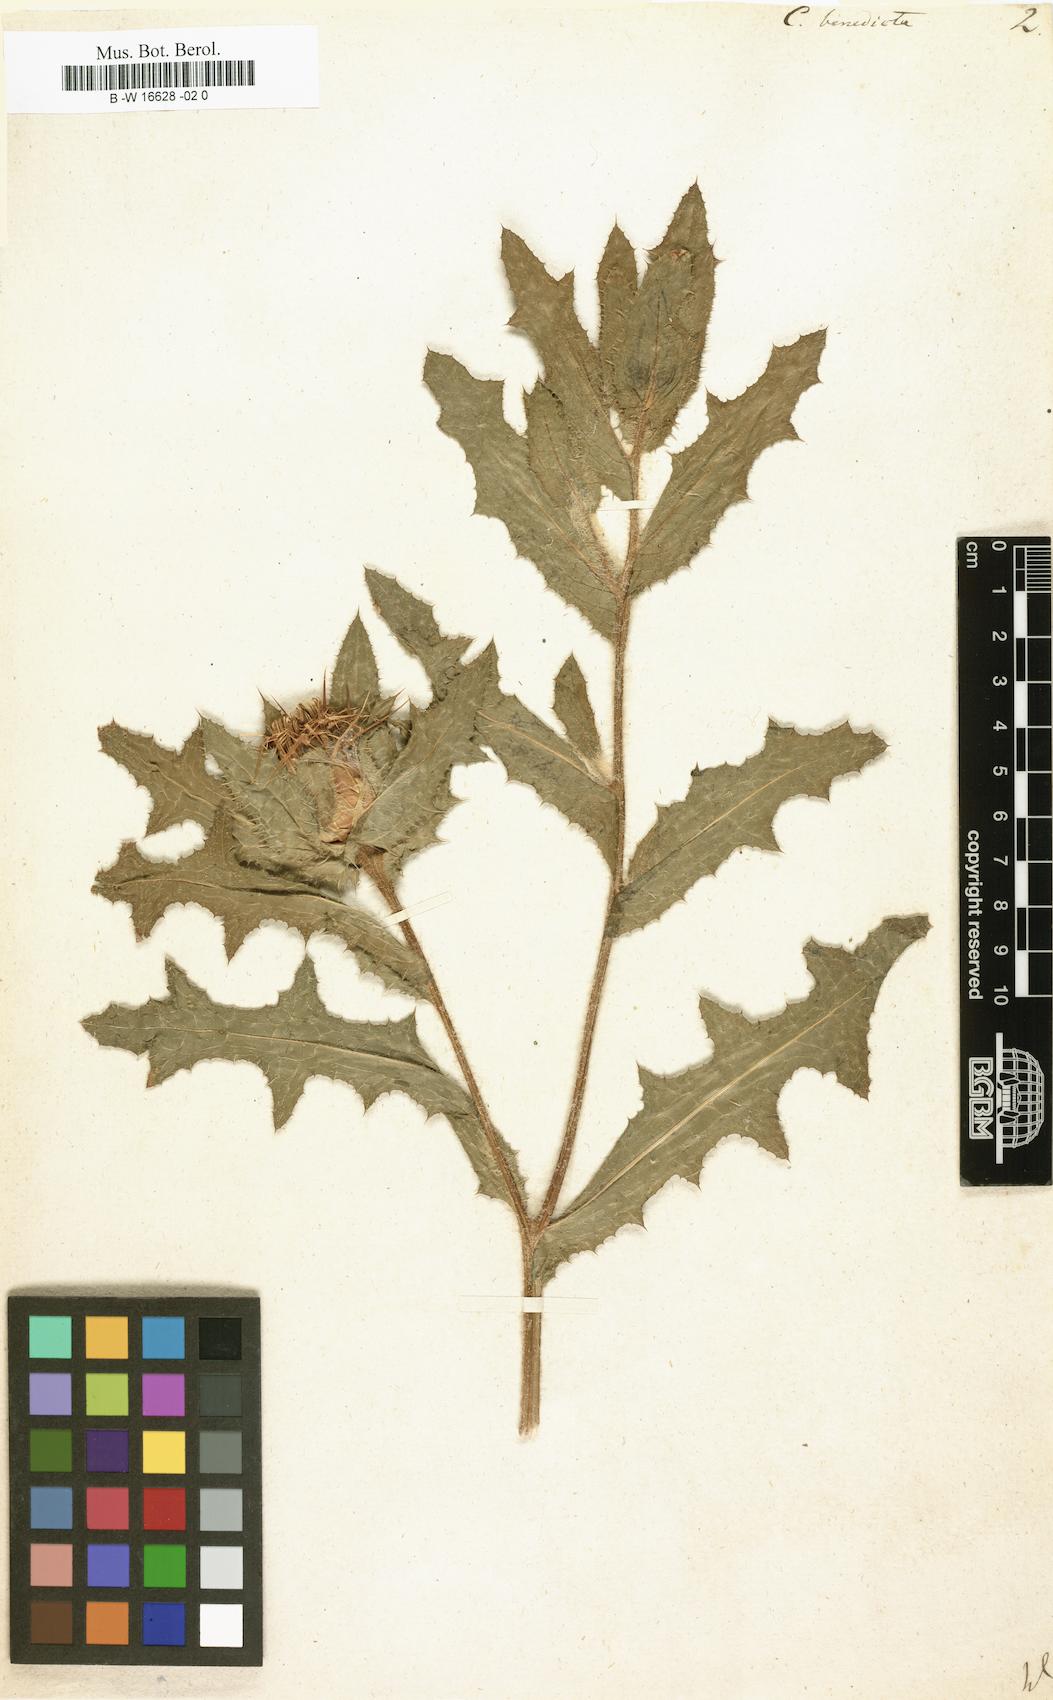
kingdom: Plantae
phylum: Tracheophyta
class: Magnoliopsida
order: Asterales
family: Asteraceae
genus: Centaurea
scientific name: Centaurea benedicta
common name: Blessed thistle
